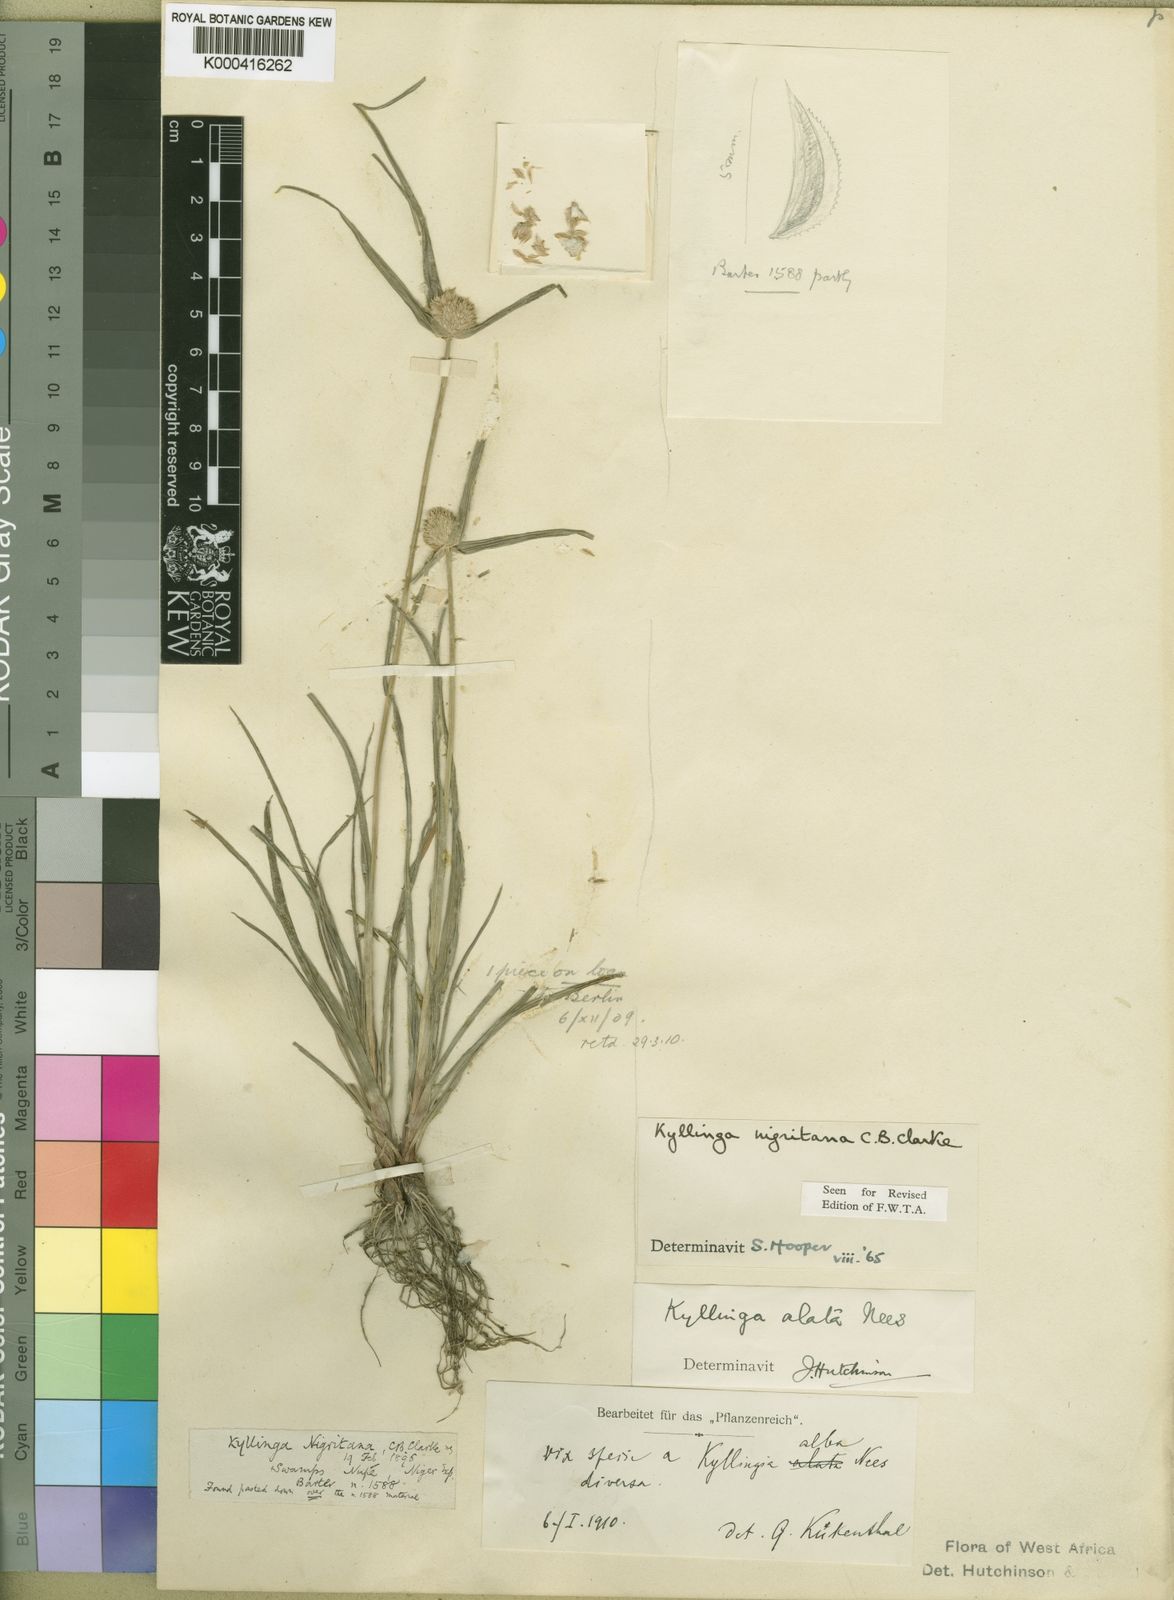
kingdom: Plantae
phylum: Tracheophyta
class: Liliopsida
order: Poales
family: Cyperaceae
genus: Cyperus
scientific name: Cyperus alatus
